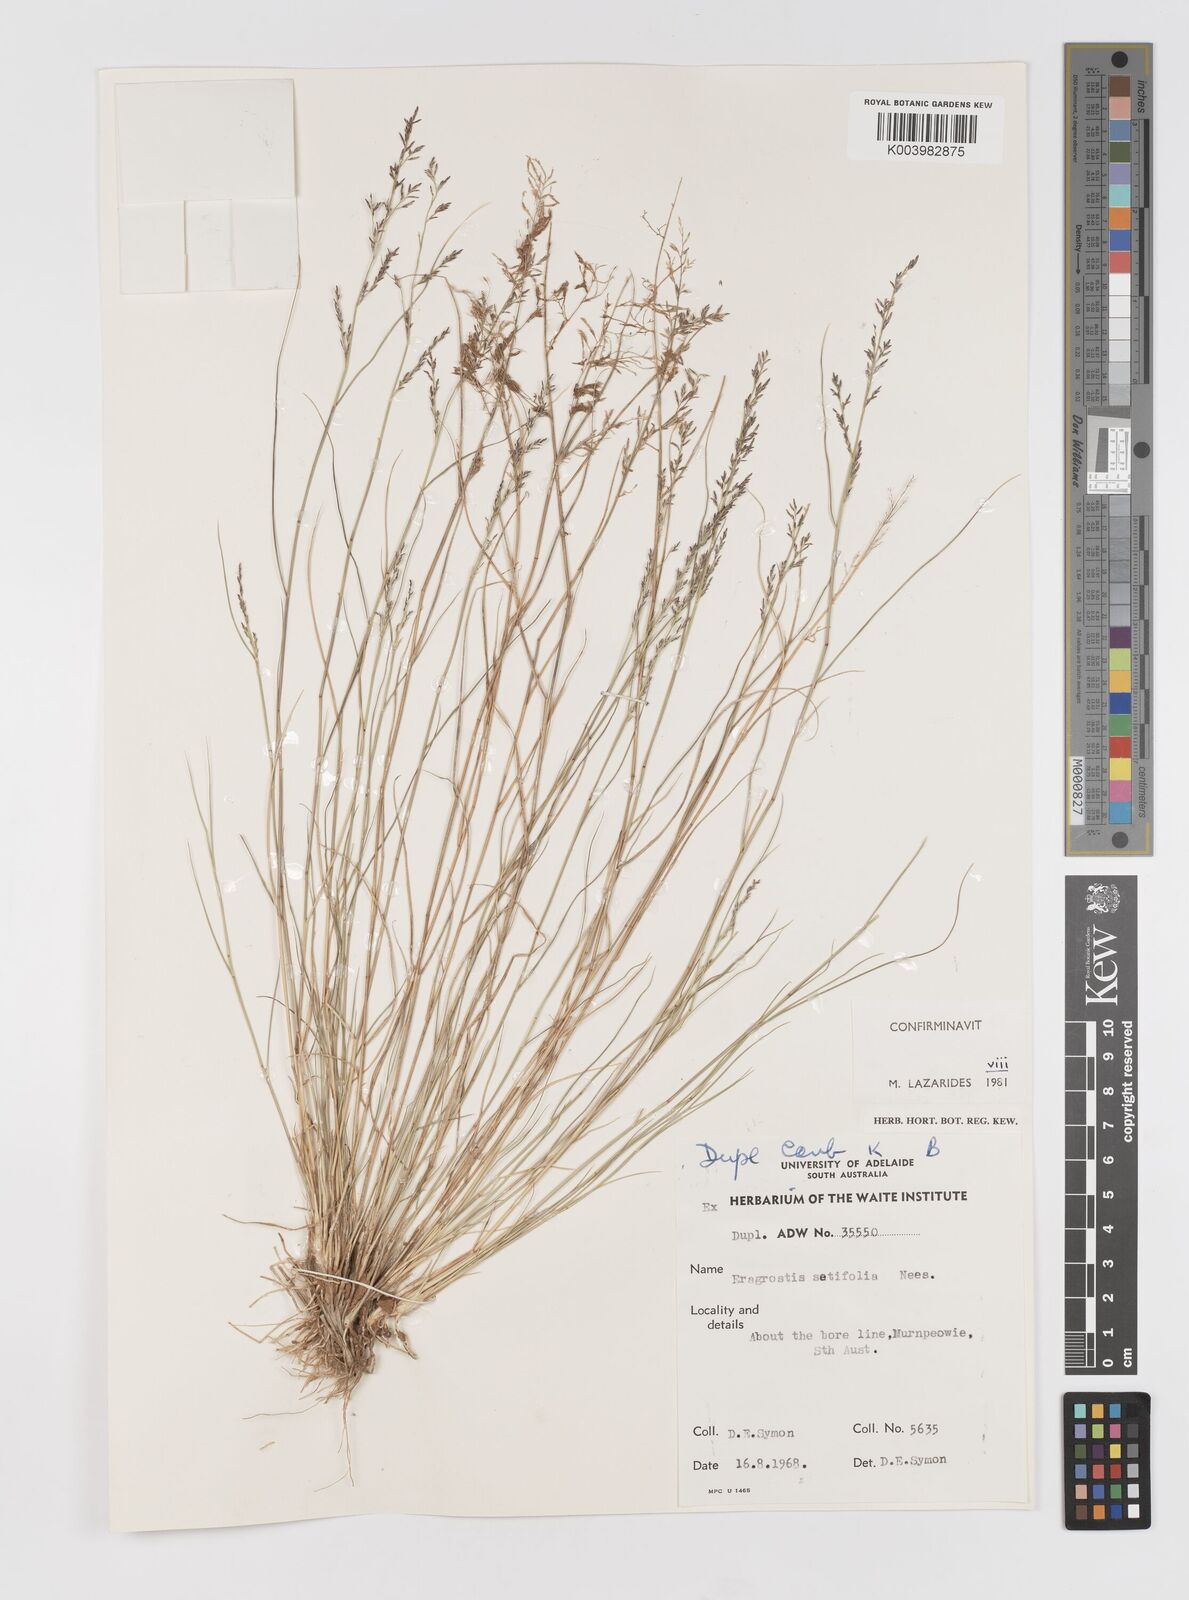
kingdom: Plantae
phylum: Tracheophyta
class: Liliopsida
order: Poales
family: Poaceae
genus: Eragrostis
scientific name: Eragrostis setifolia
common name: Bristleleaf lovegrass
